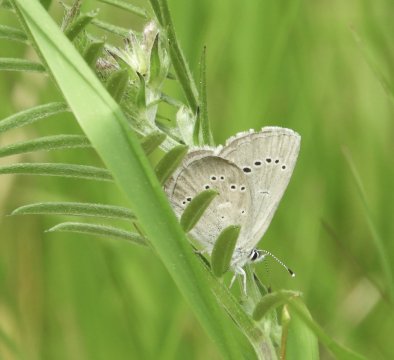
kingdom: Animalia
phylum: Arthropoda
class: Insecta
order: Lepidoptera
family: Lycaenidae
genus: Glaucopsyche
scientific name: Glaucopsyche lygdamus
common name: Silvery Blue
